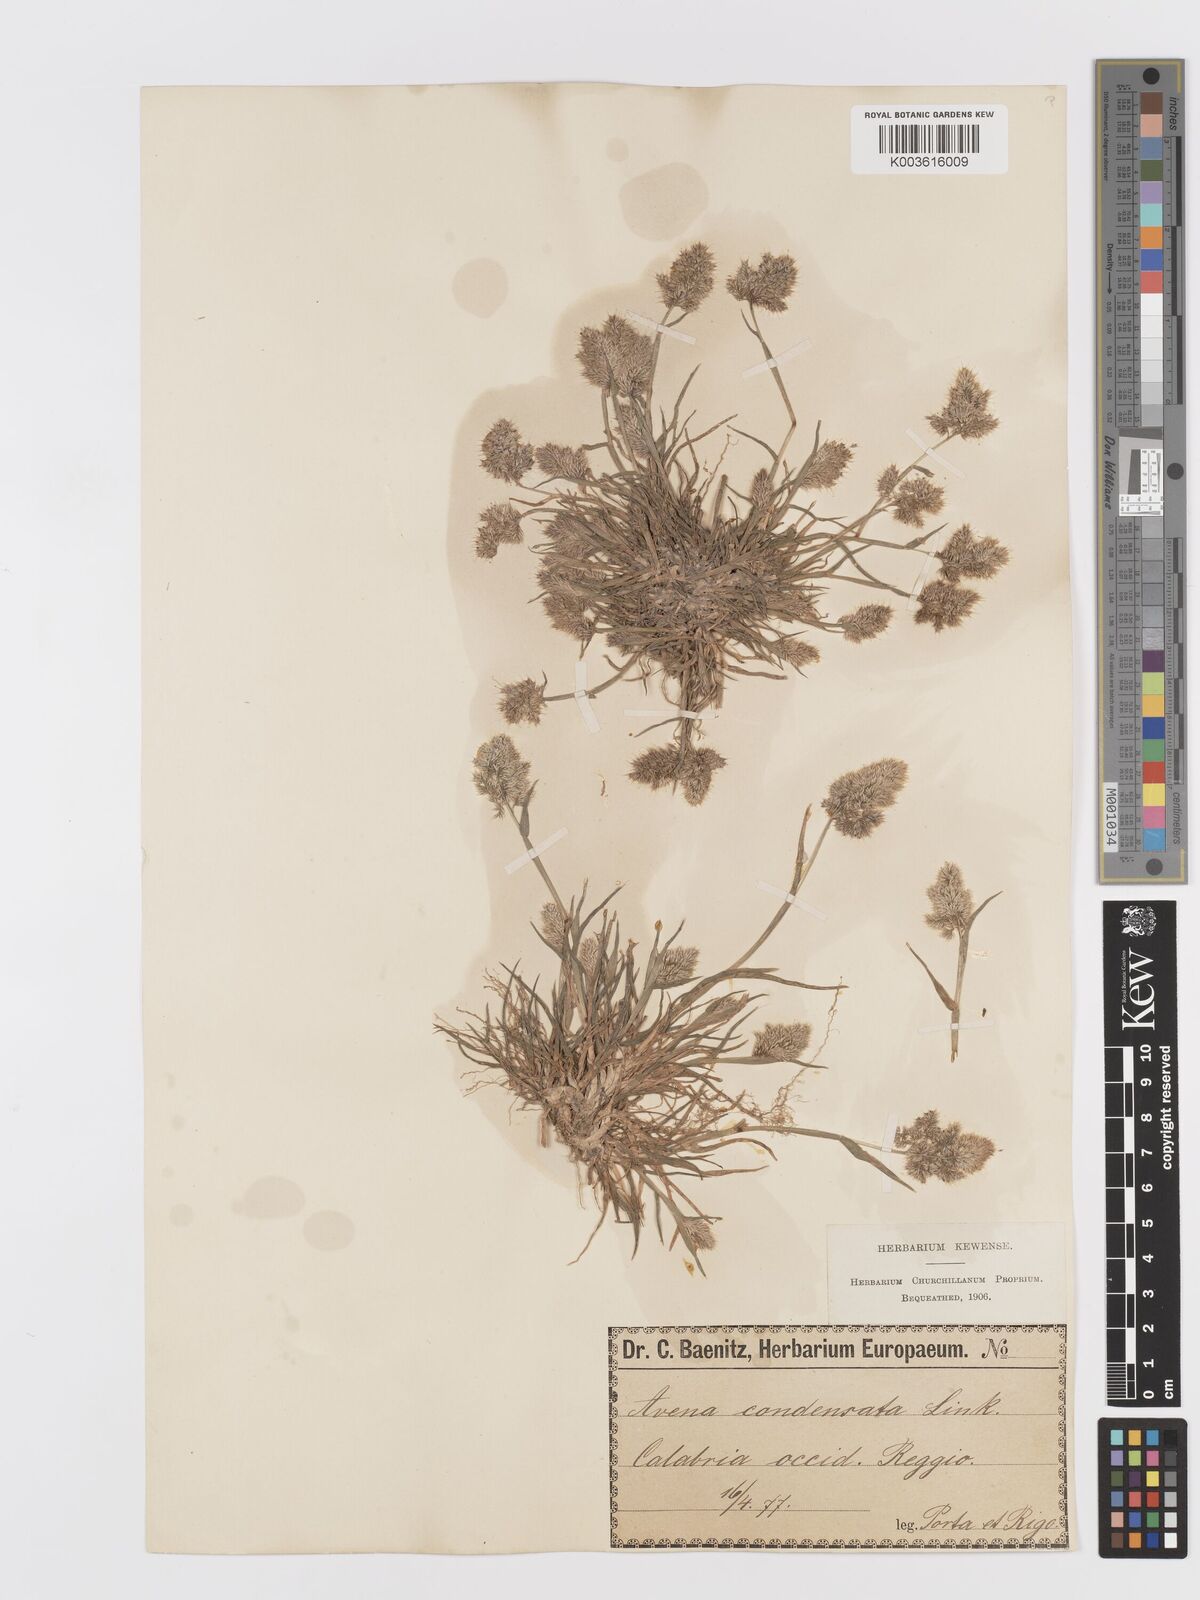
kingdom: Plantae
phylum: Tracheophyta
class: Liliopsida
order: Poales
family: Poaceae
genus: Trisetaria
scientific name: Trisetaria aurea
